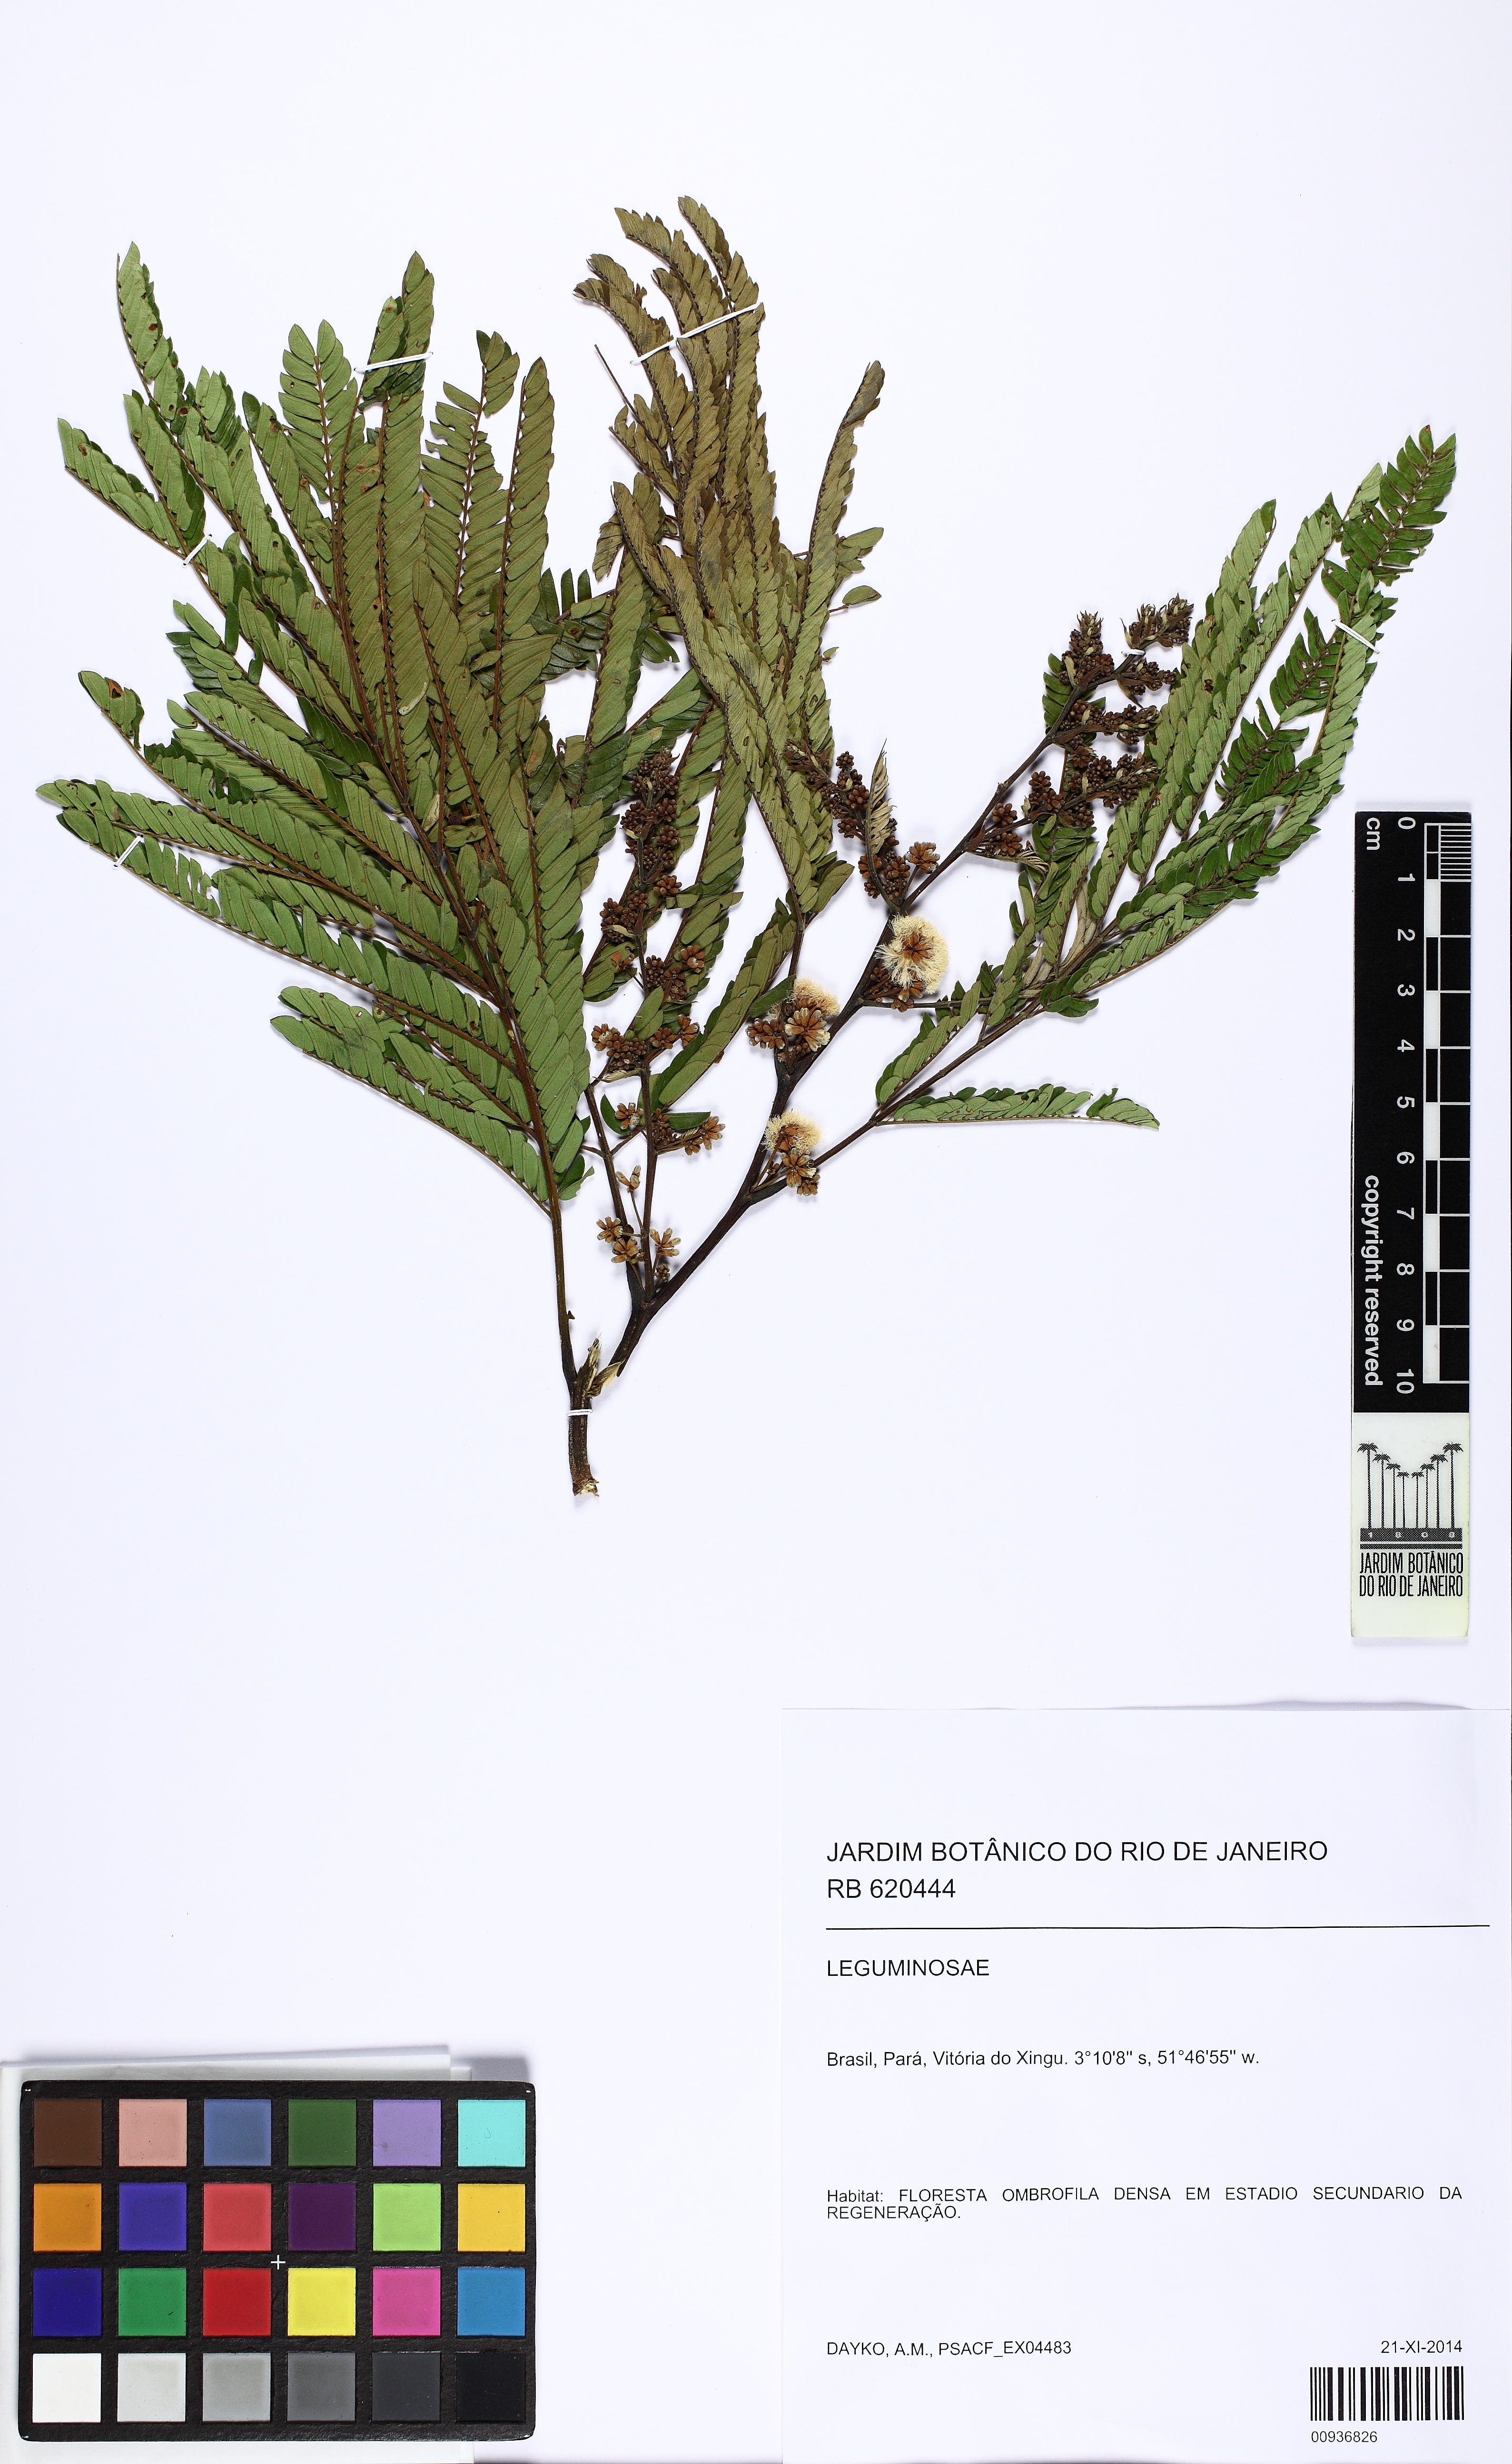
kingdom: Plantae
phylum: Tracheophyta
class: Magnoliopsida
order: Fabales
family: Fabaceae
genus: Senegalia
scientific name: Senegalia polyphylla
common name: White-tamarind
